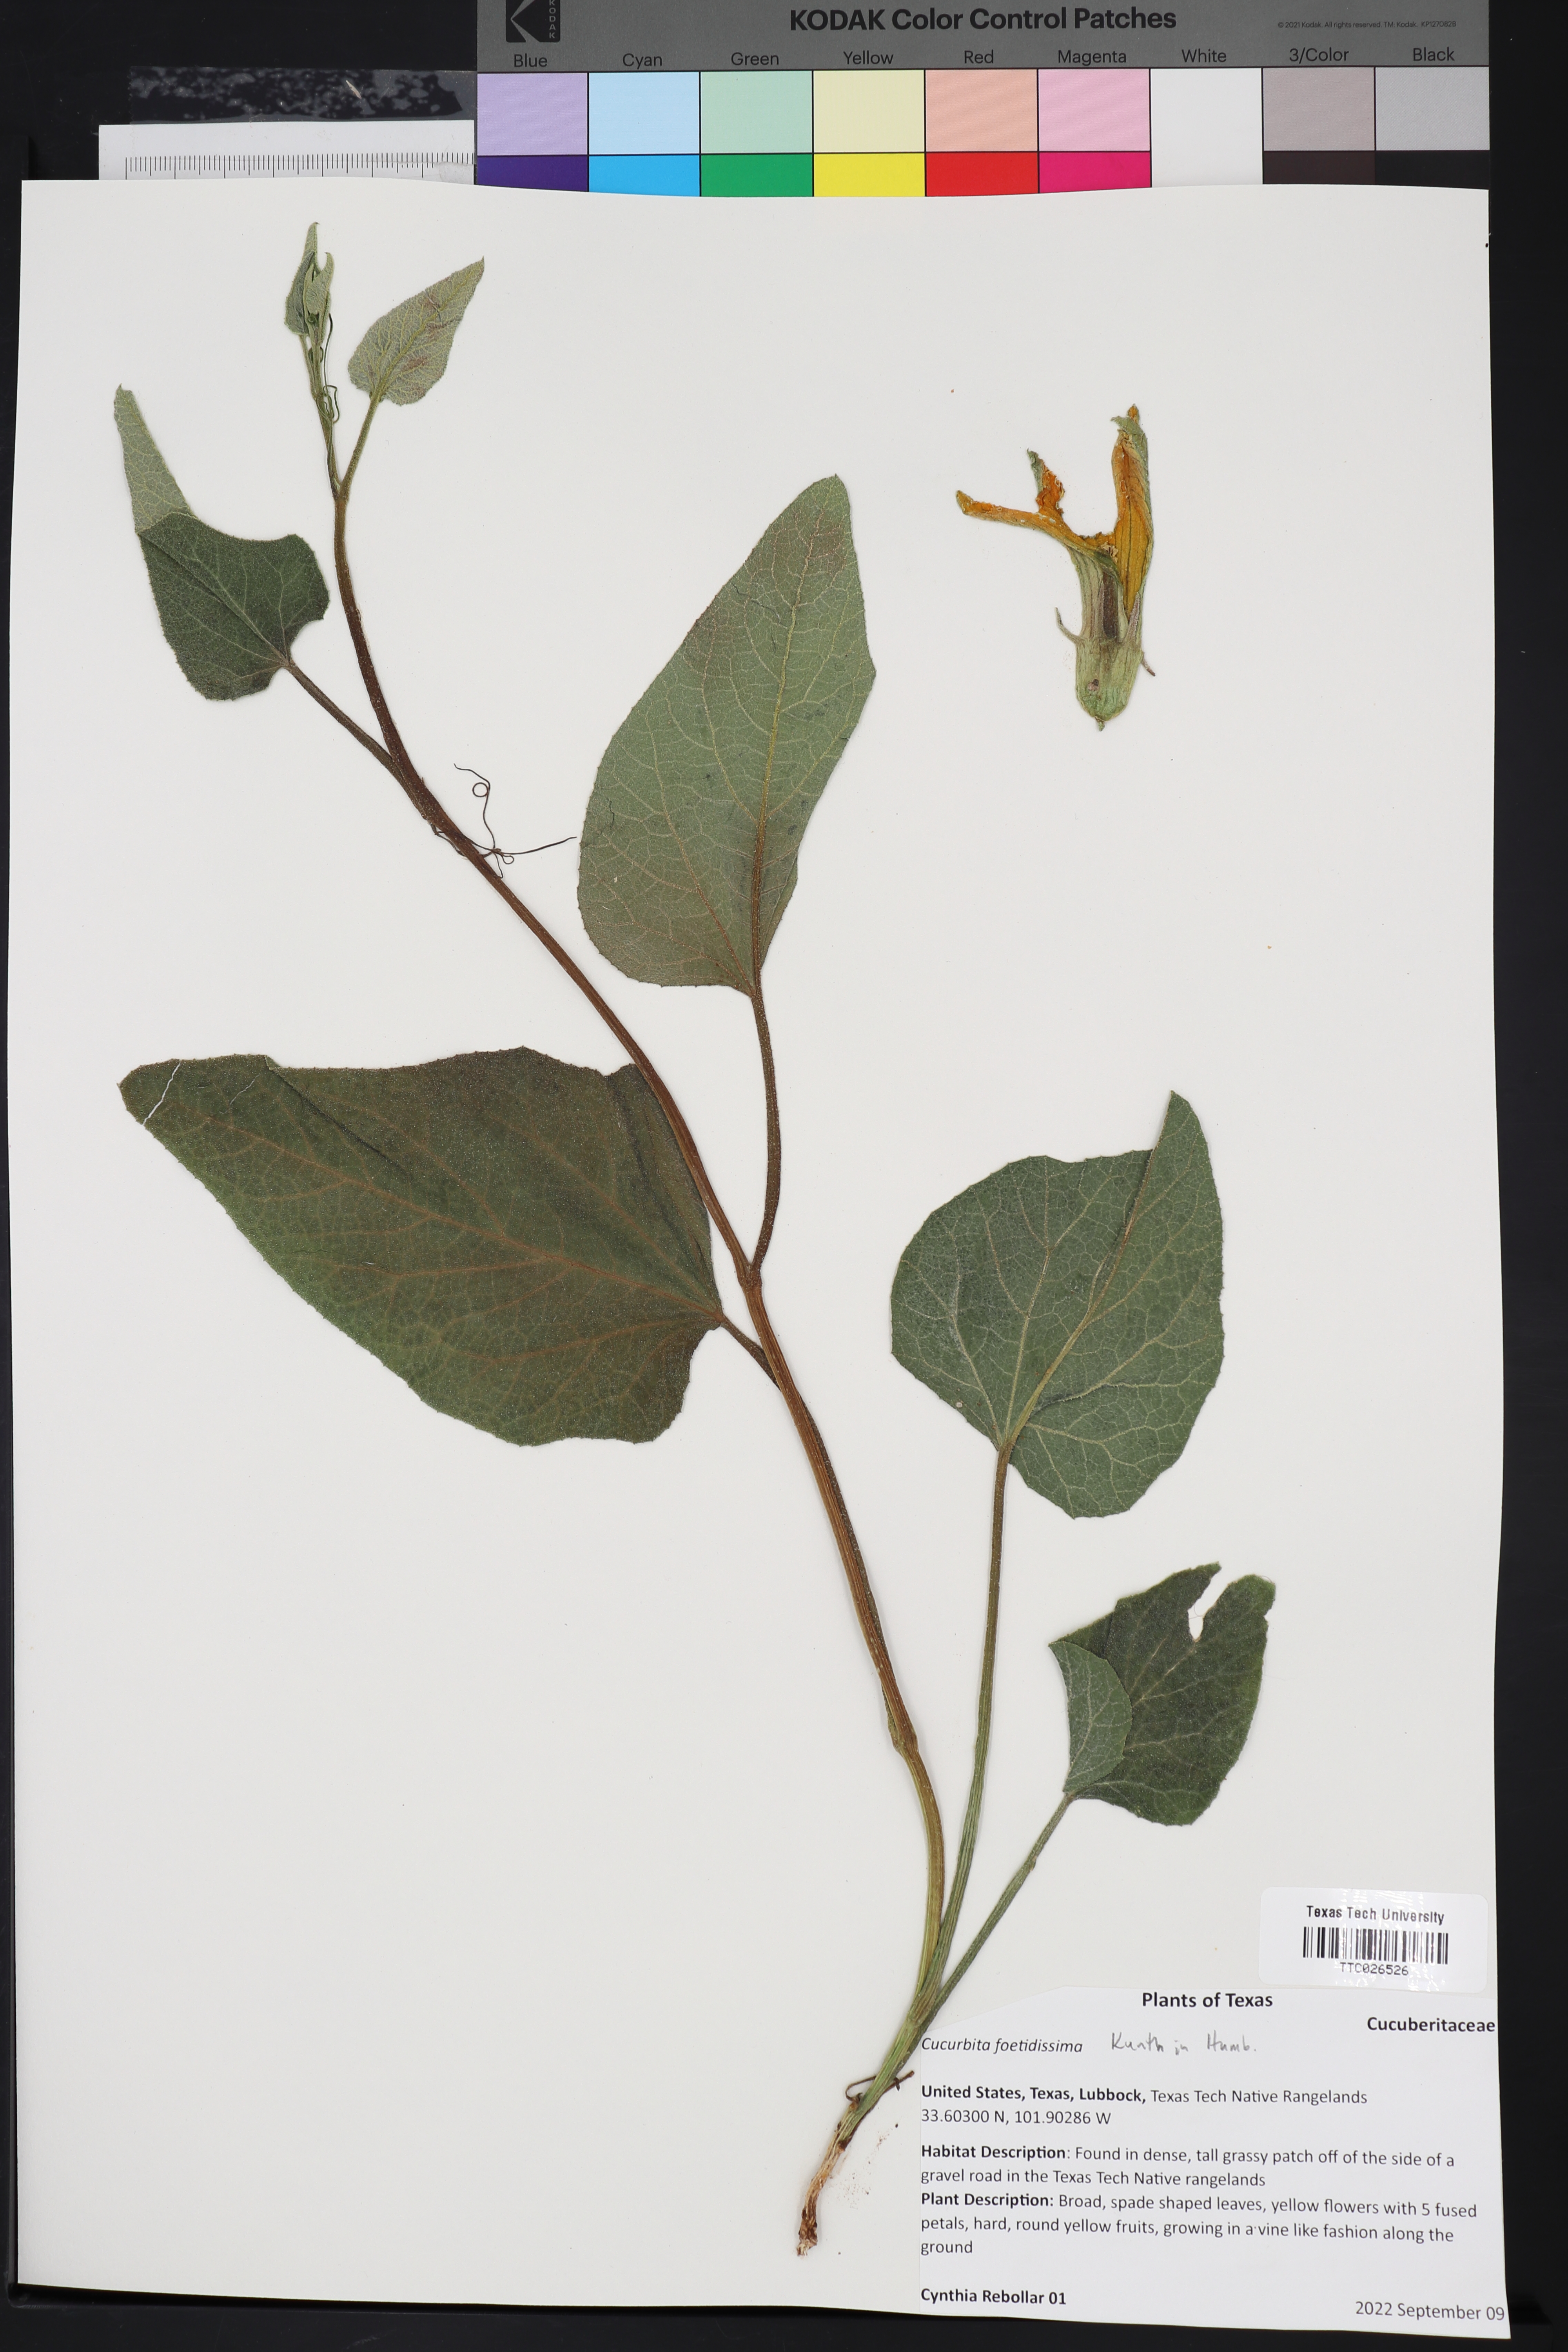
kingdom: Plantae
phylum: Tracheophyta
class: Magnoliopsida
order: Cucurbitales
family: Cucurbitaceae
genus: Cucurbita
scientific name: Cucurbita foetidissima
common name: Buffalo gourd
